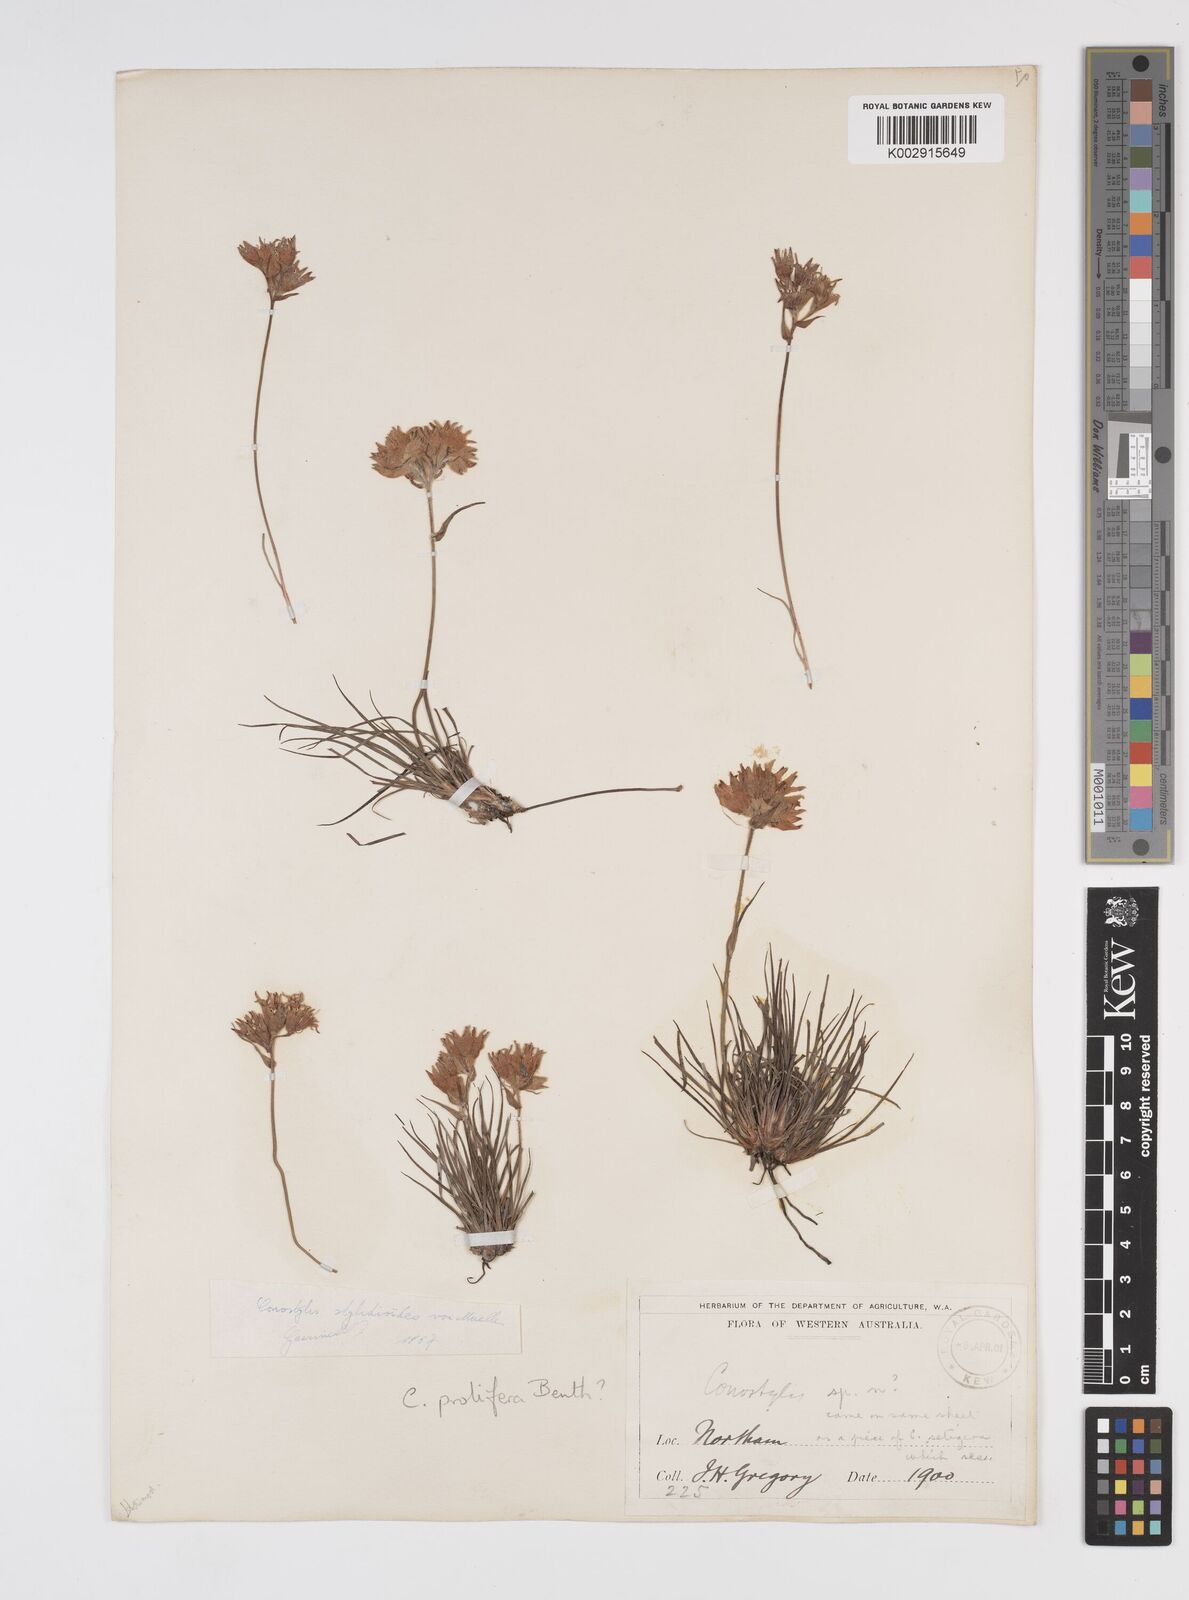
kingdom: Plantae
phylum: Tracheophyta
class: Liliopsida
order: Commelinales
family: Haemodoraceae
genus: Conostylis
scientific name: Conostylis stylidioides
